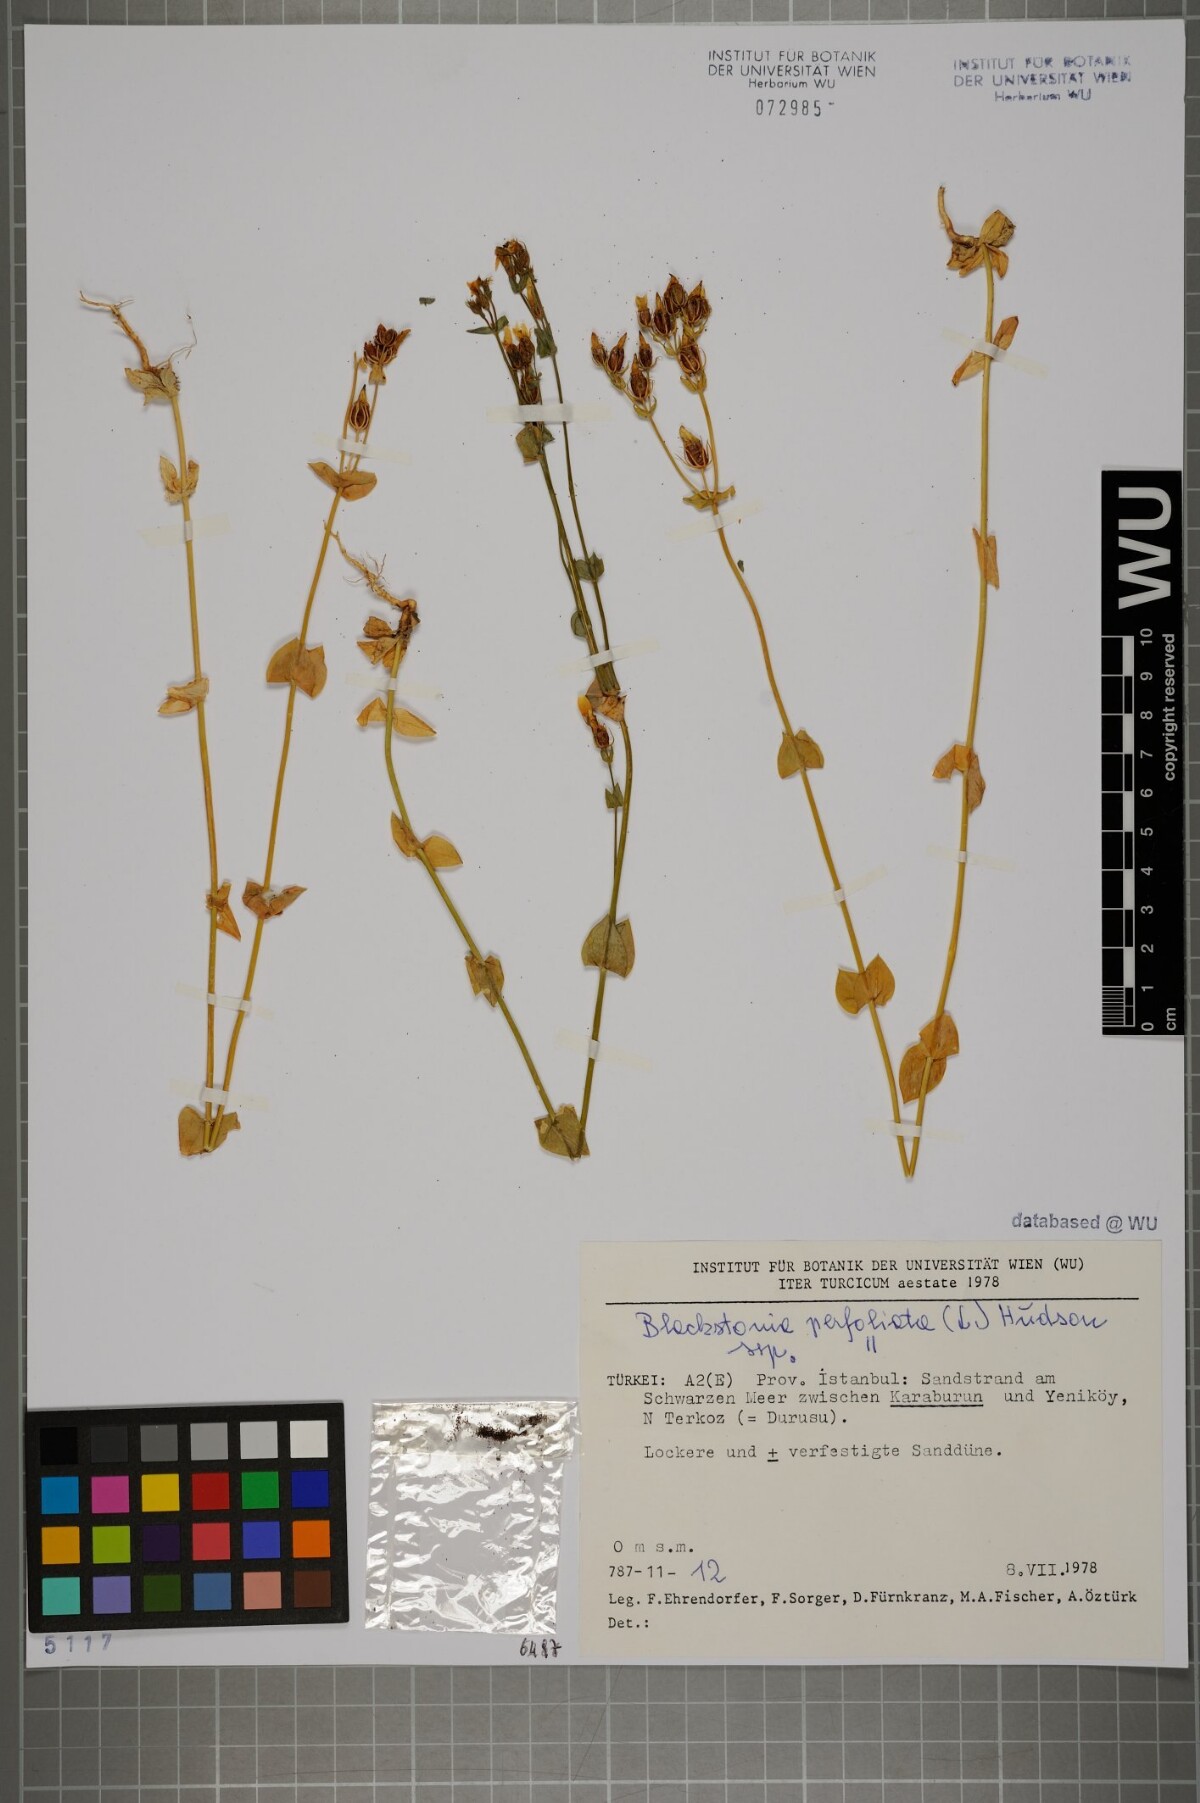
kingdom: Plantae
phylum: Tracheophyta
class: Magnoliopsida
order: Gentianales
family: Gentianaceae
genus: Blackstonia
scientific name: Blackstonia perfoliata
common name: Yellow-wort
